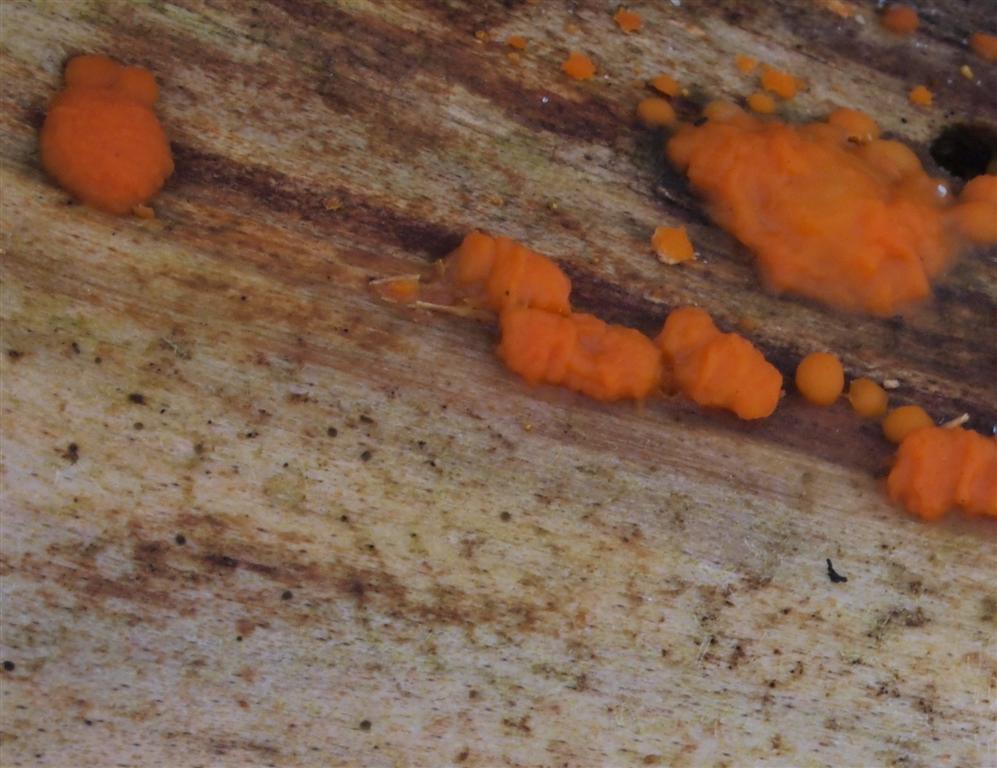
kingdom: Fungi
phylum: Basidiomycota
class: Dacrymycetes
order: Dacrymycetales
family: Dacrymycetaceae
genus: Dacrymyces
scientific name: Dacrymyces stillatus
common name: almindelig tåresvamp
